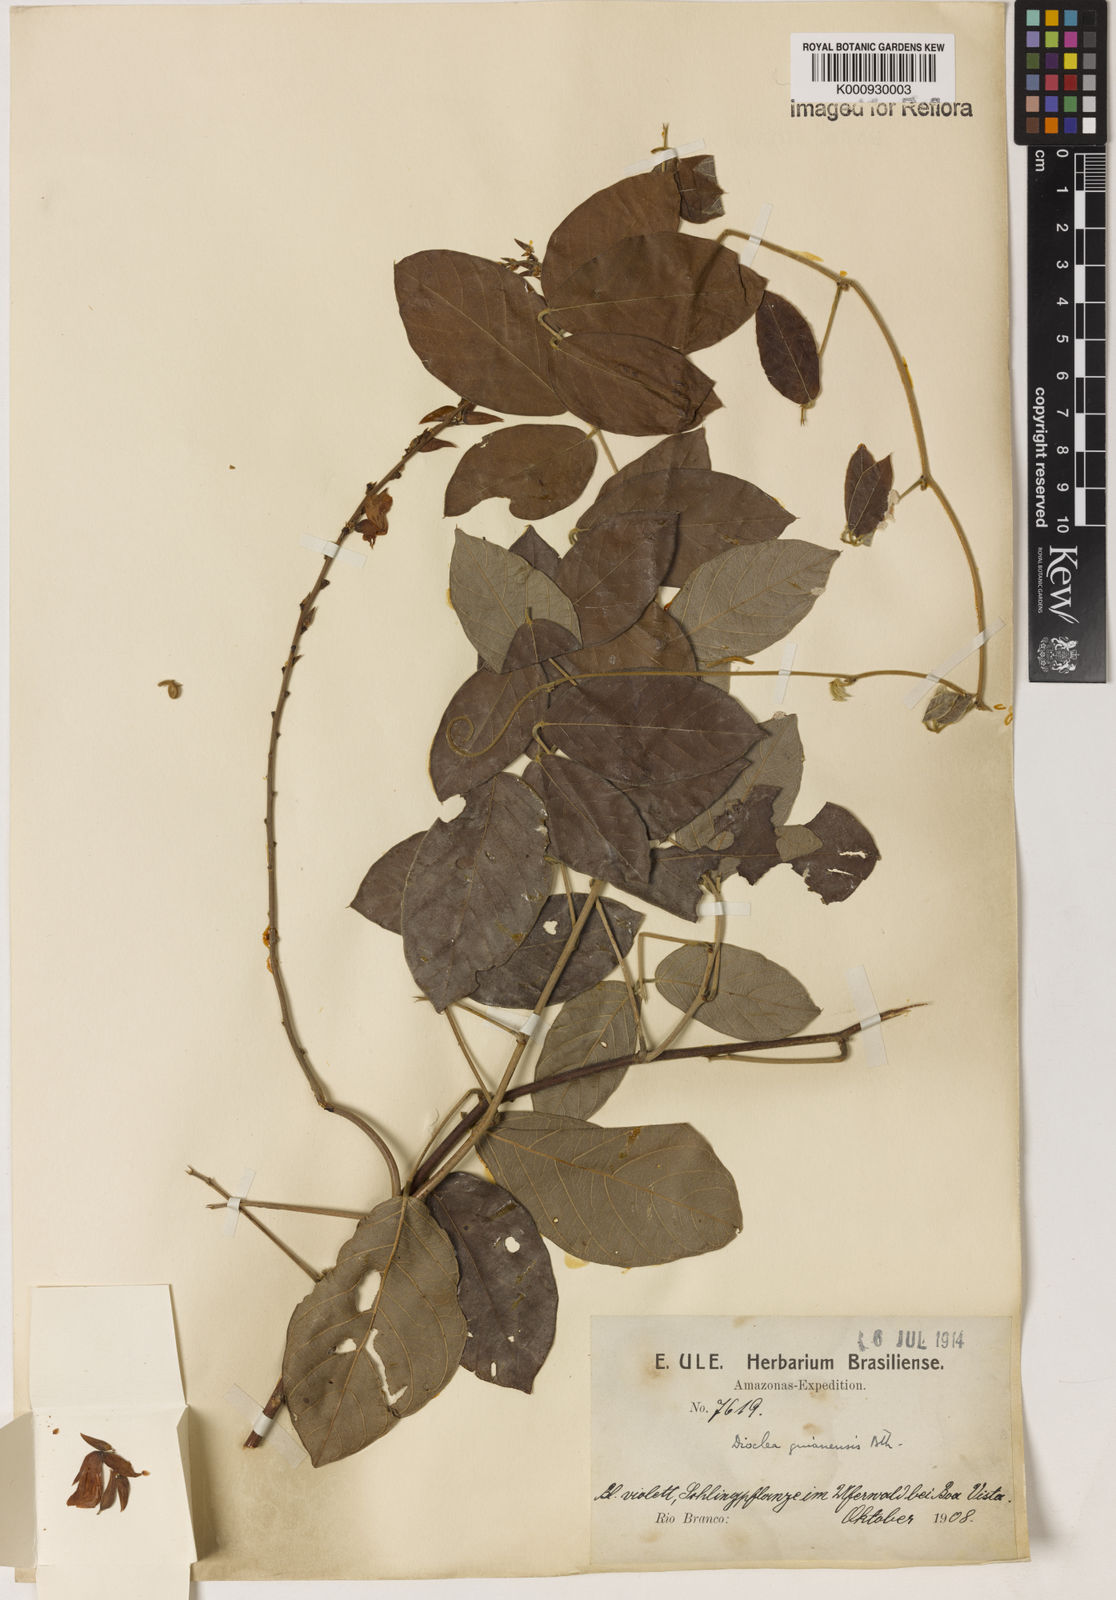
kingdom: Plantae
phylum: Tracheophyta
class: Magnoliopsida
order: Fabales
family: Fabaceae
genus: Dioclea
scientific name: Dioclea guianensis
